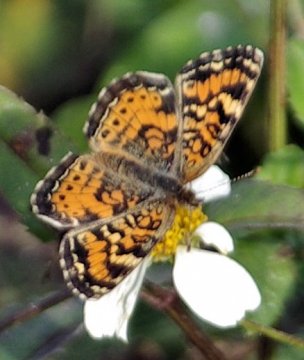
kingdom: Animalia
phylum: Arthropoda
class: Insecta
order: Lepidoptera
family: Nymphalidae
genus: Phyciodes
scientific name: Phyciodes tharos
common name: Pearl Crescent
